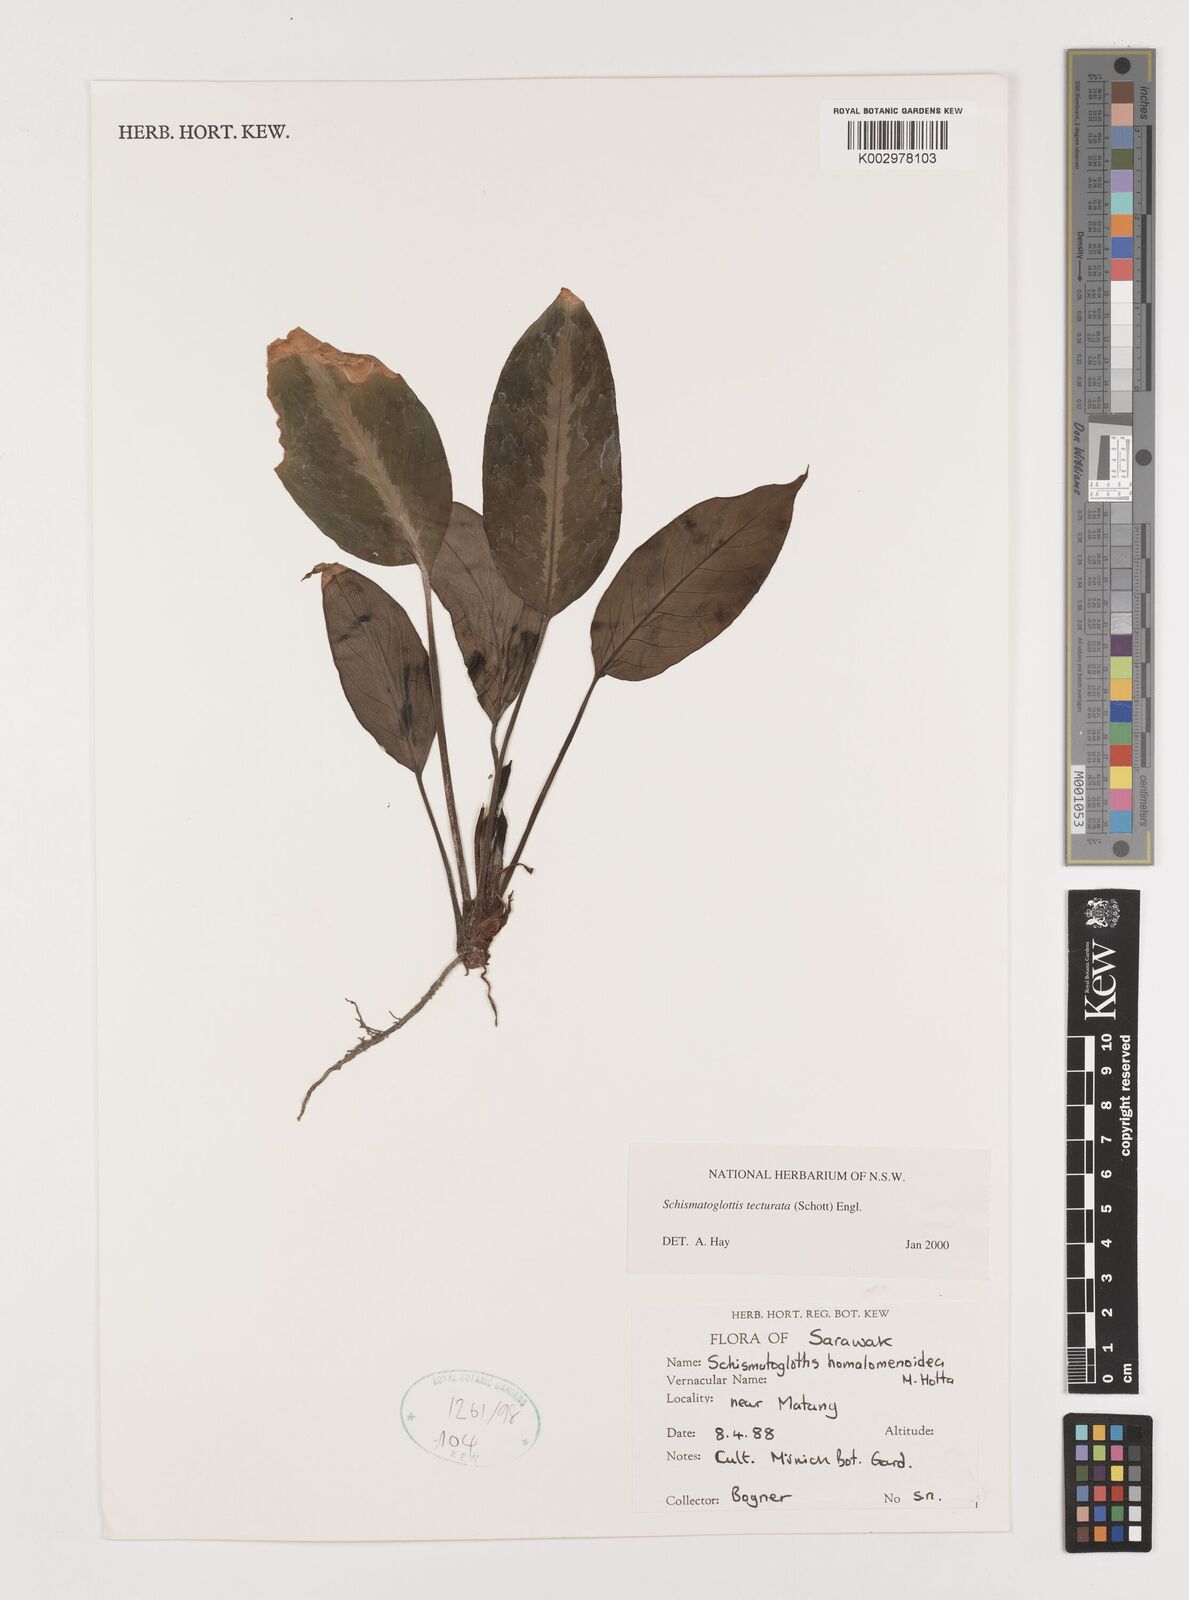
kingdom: Plantae
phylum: Tracheophyta
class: Liliopsida
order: Zingiberales
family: Costaceae
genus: Colobogynium
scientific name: Colobogynium variegatum
